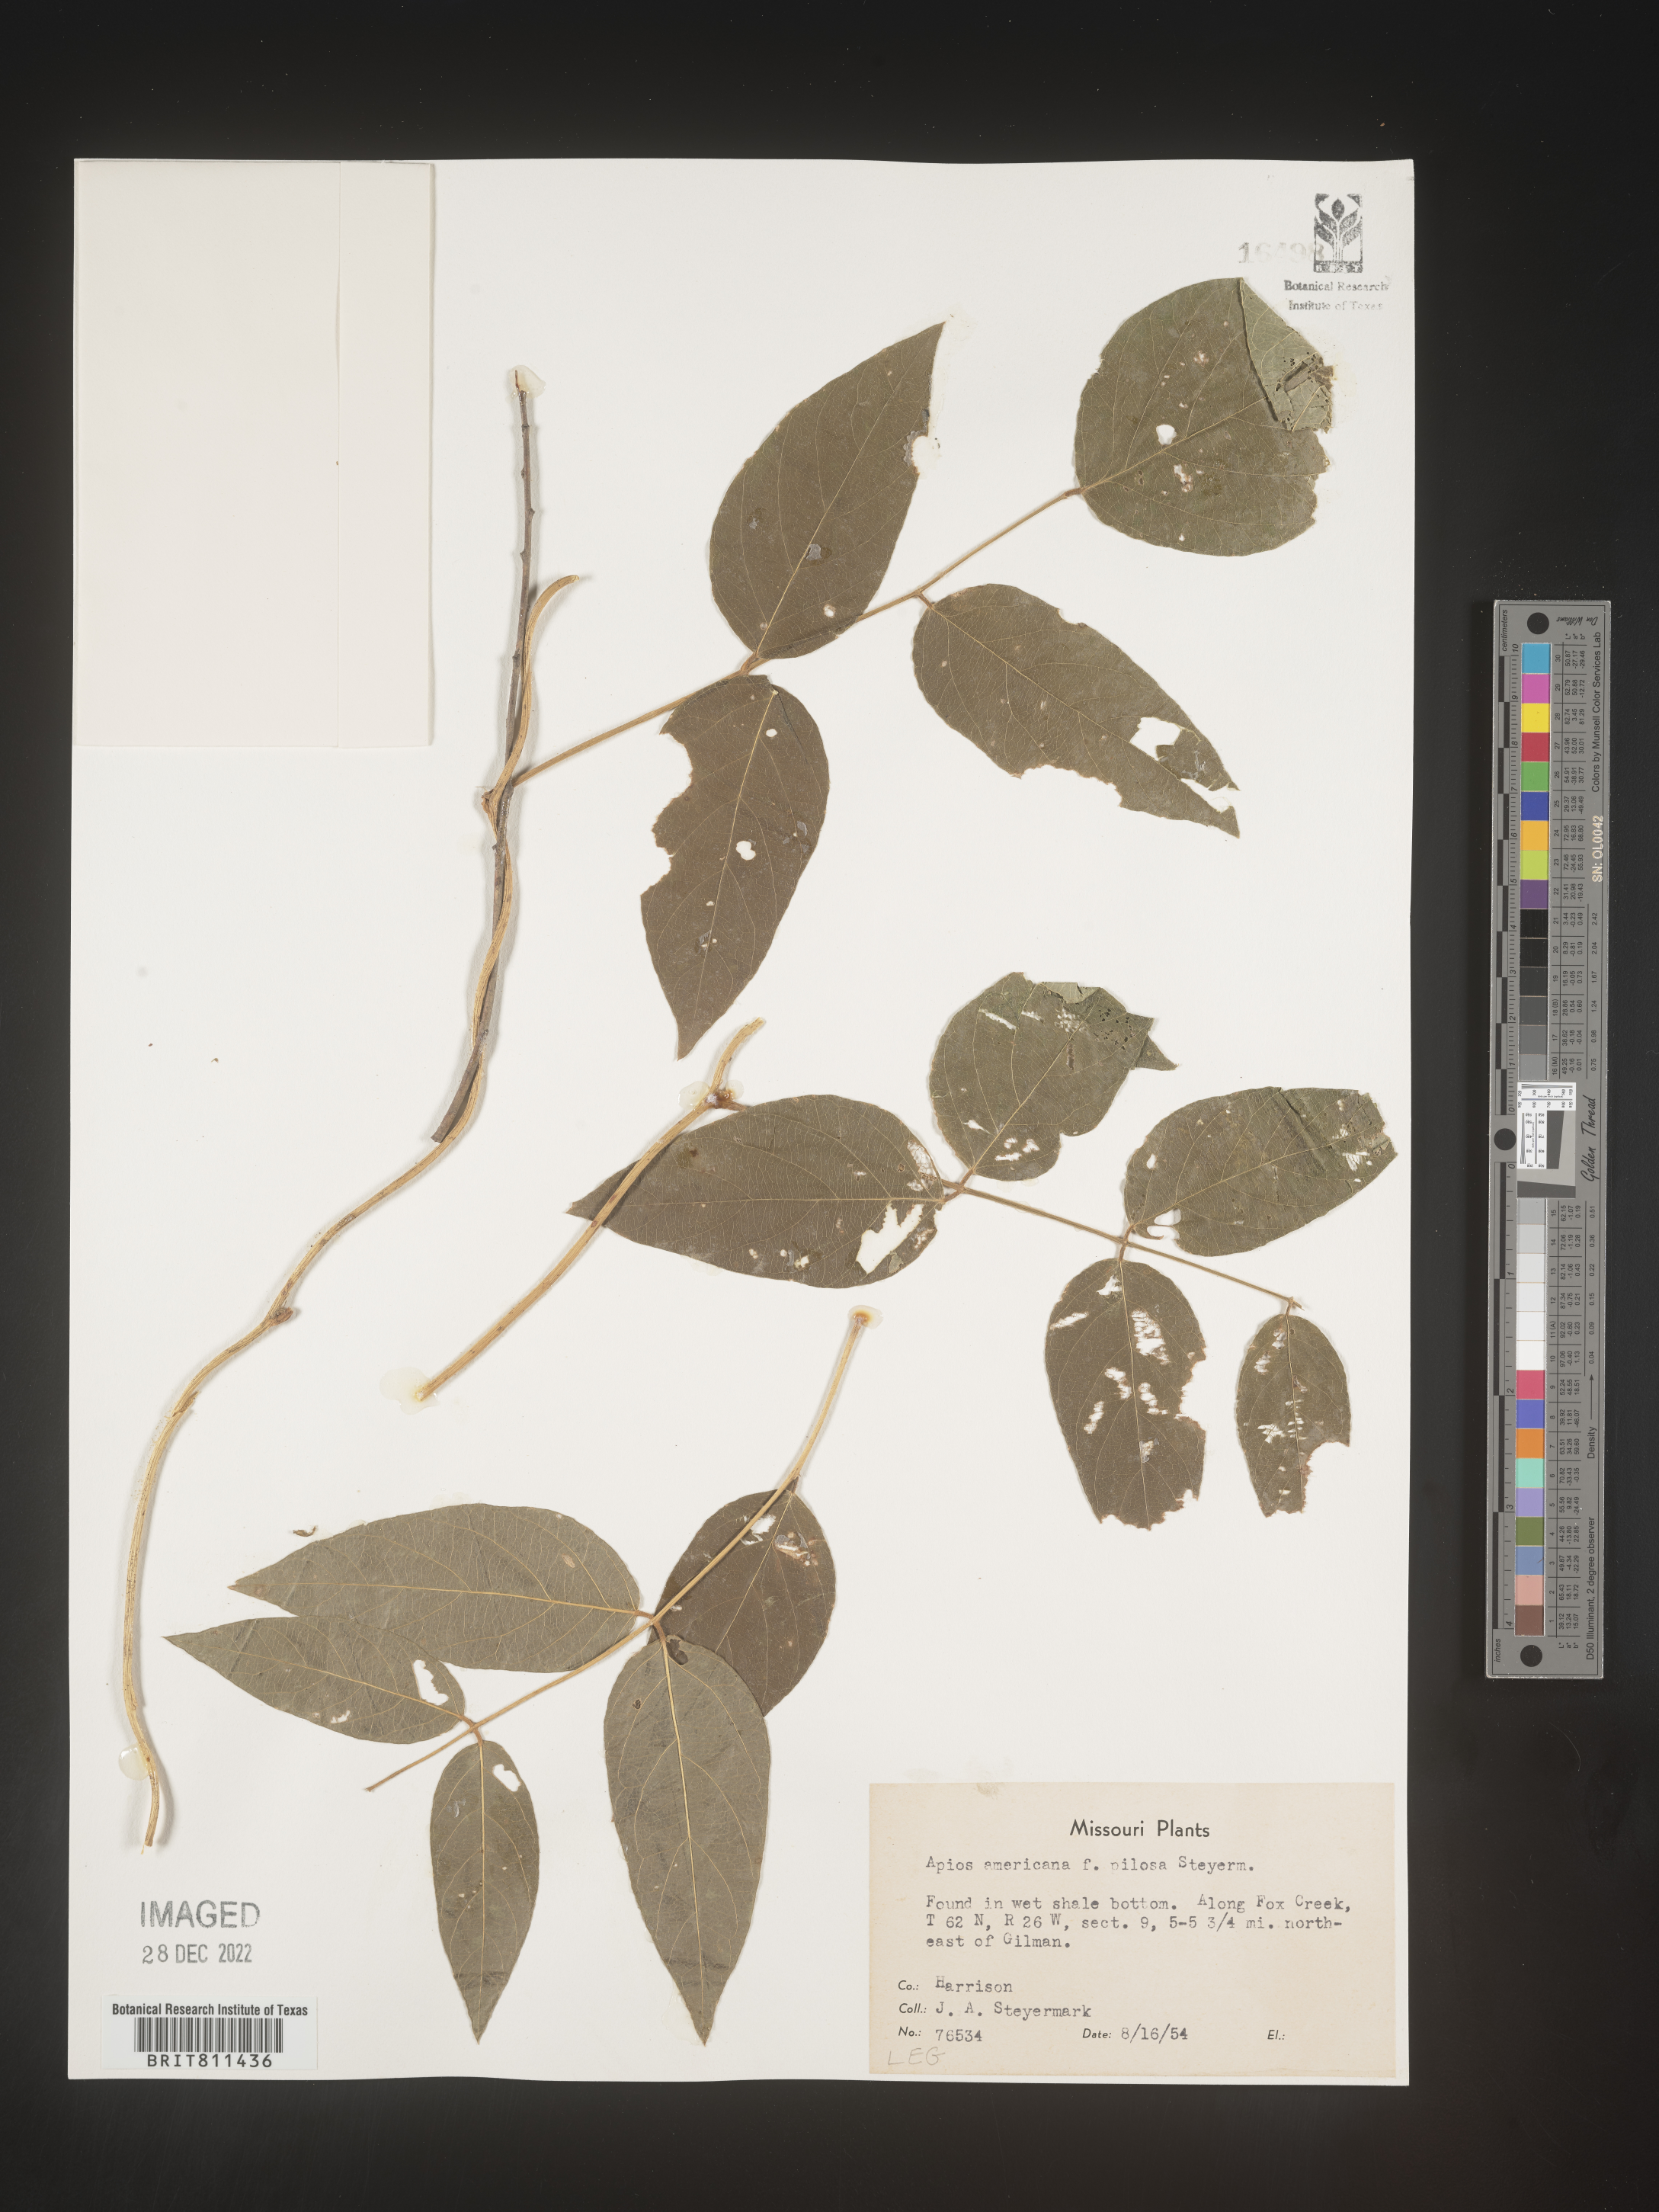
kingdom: Plantae
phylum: Tracheophyta
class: Magnoliopsida
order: Fabales
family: Fabaceae
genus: Apios
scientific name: Apios americana
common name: American potato-bean
